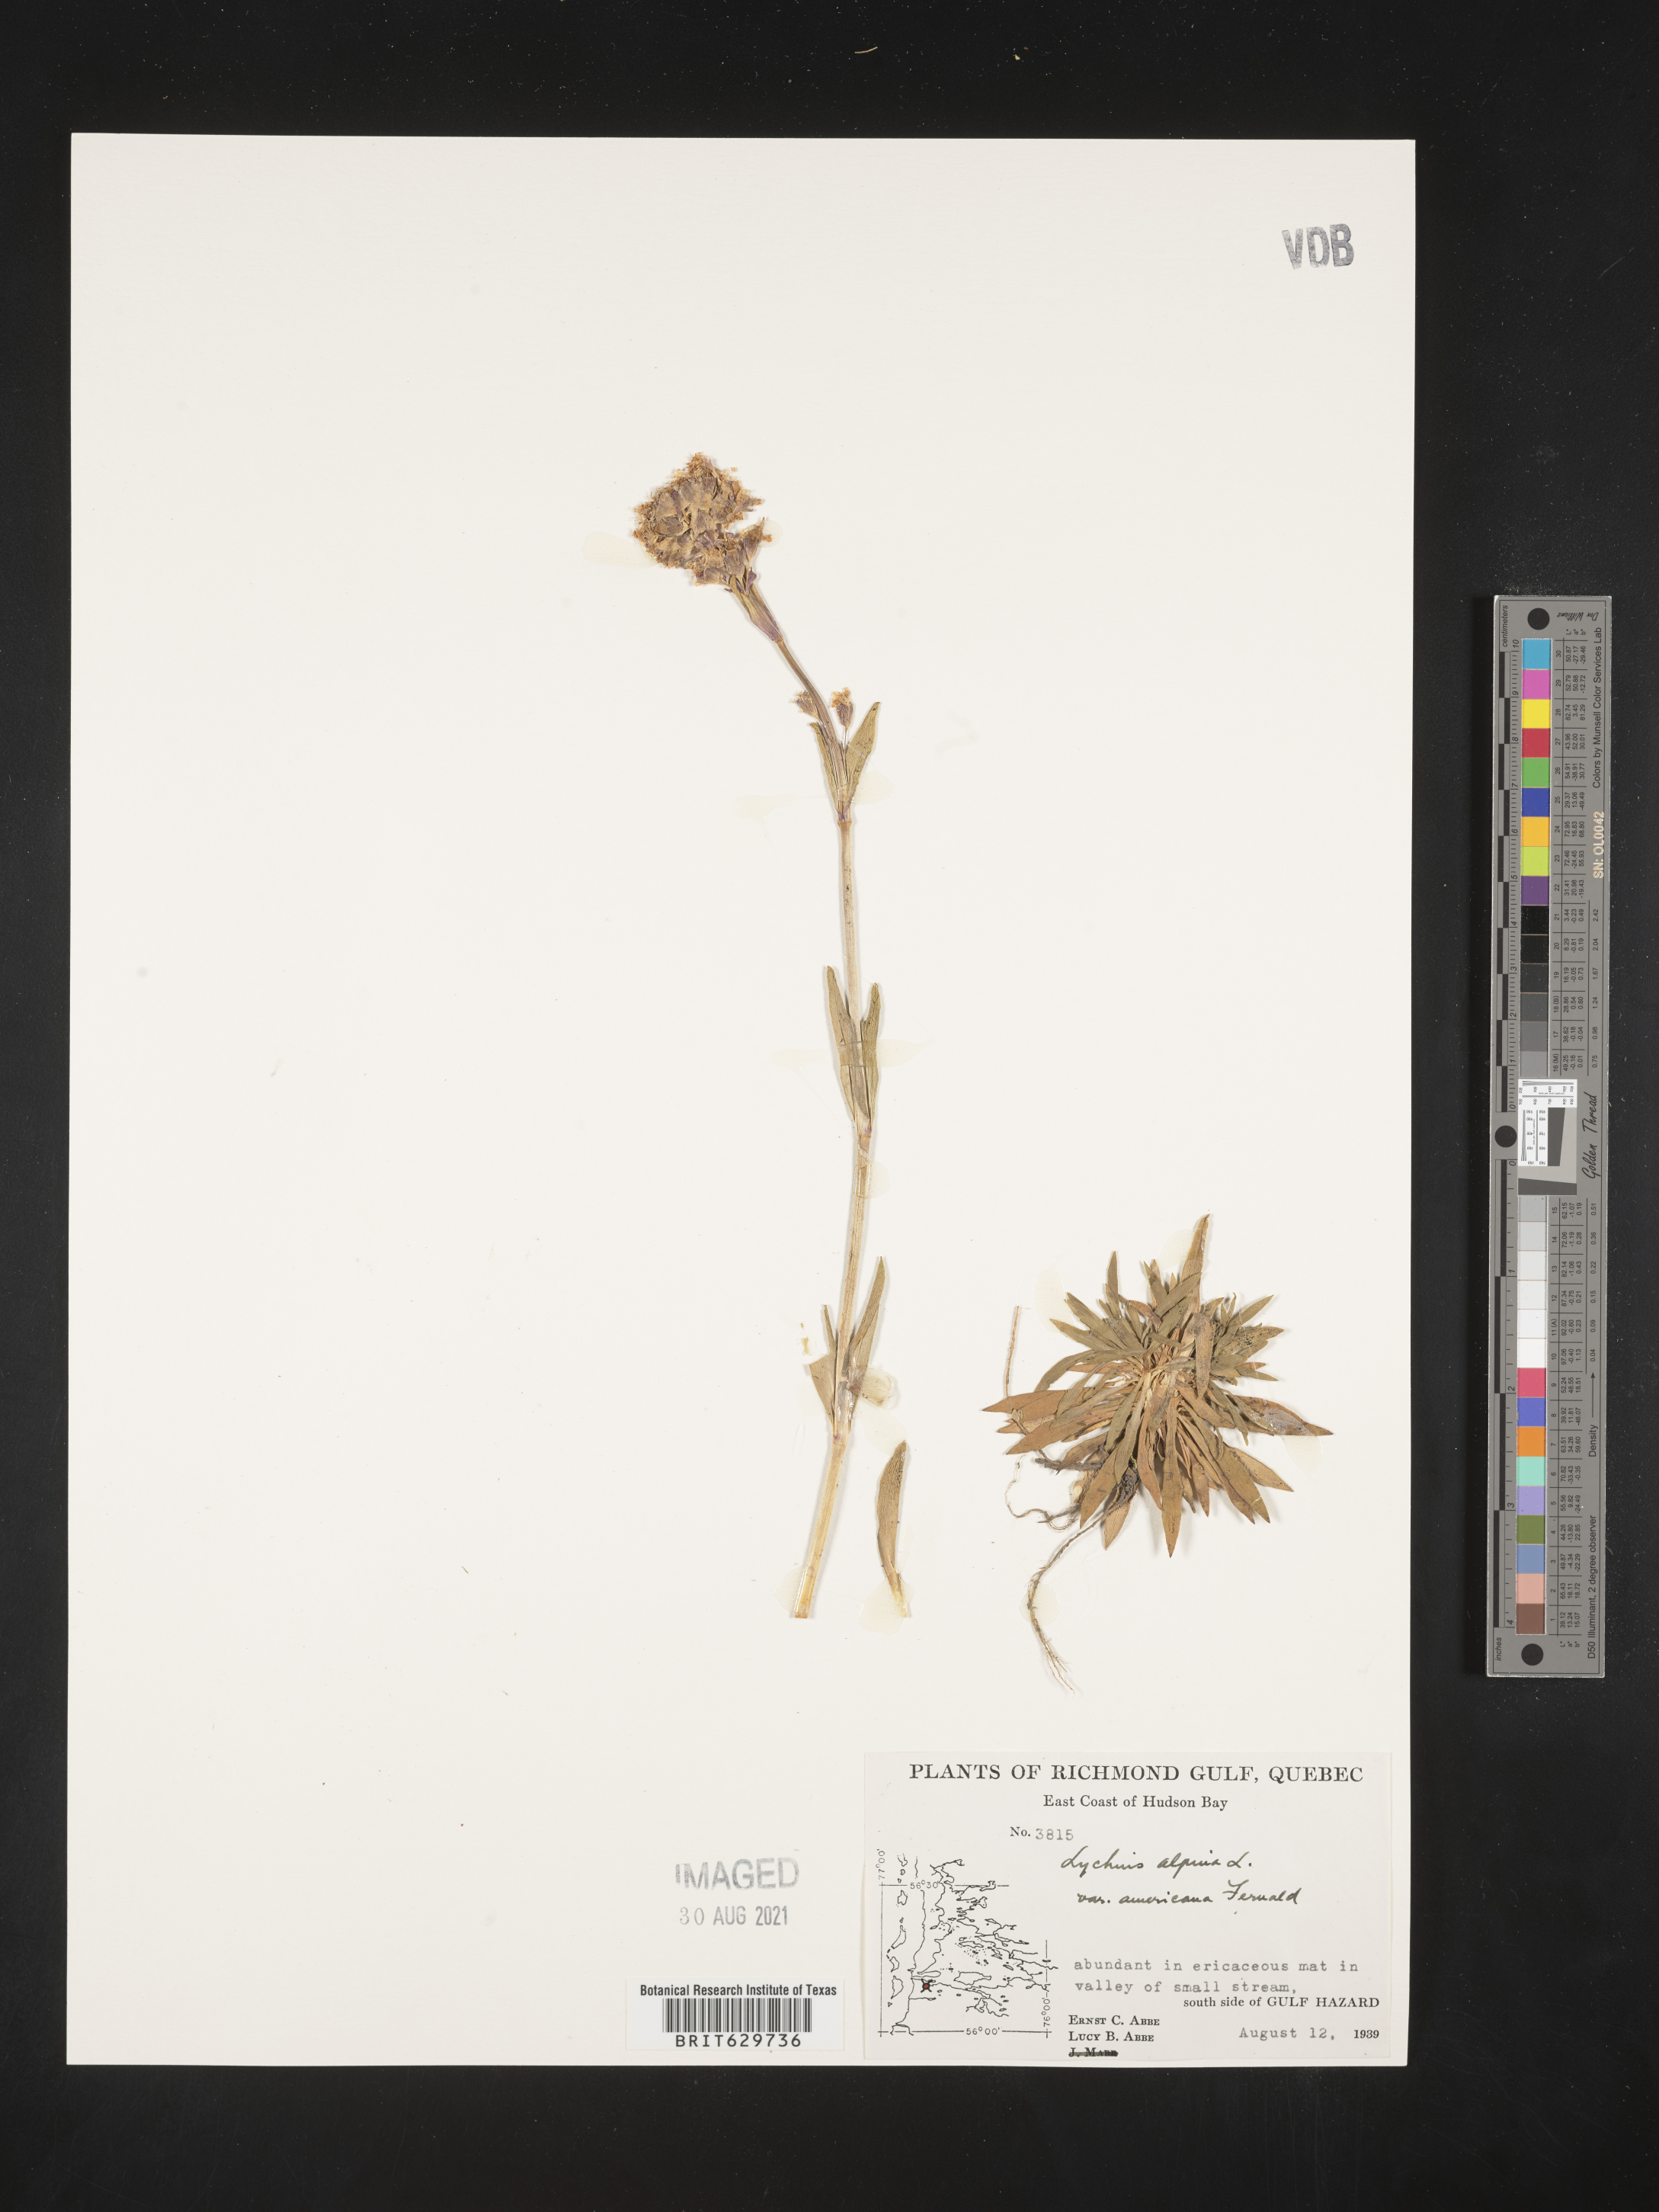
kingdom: Plantae
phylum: Tracheophyta
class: Magnoliopsida
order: Caryophyllales
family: Caryophyllaceae
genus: Viscaria
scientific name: Viscaria alpina
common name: Alpine campion
